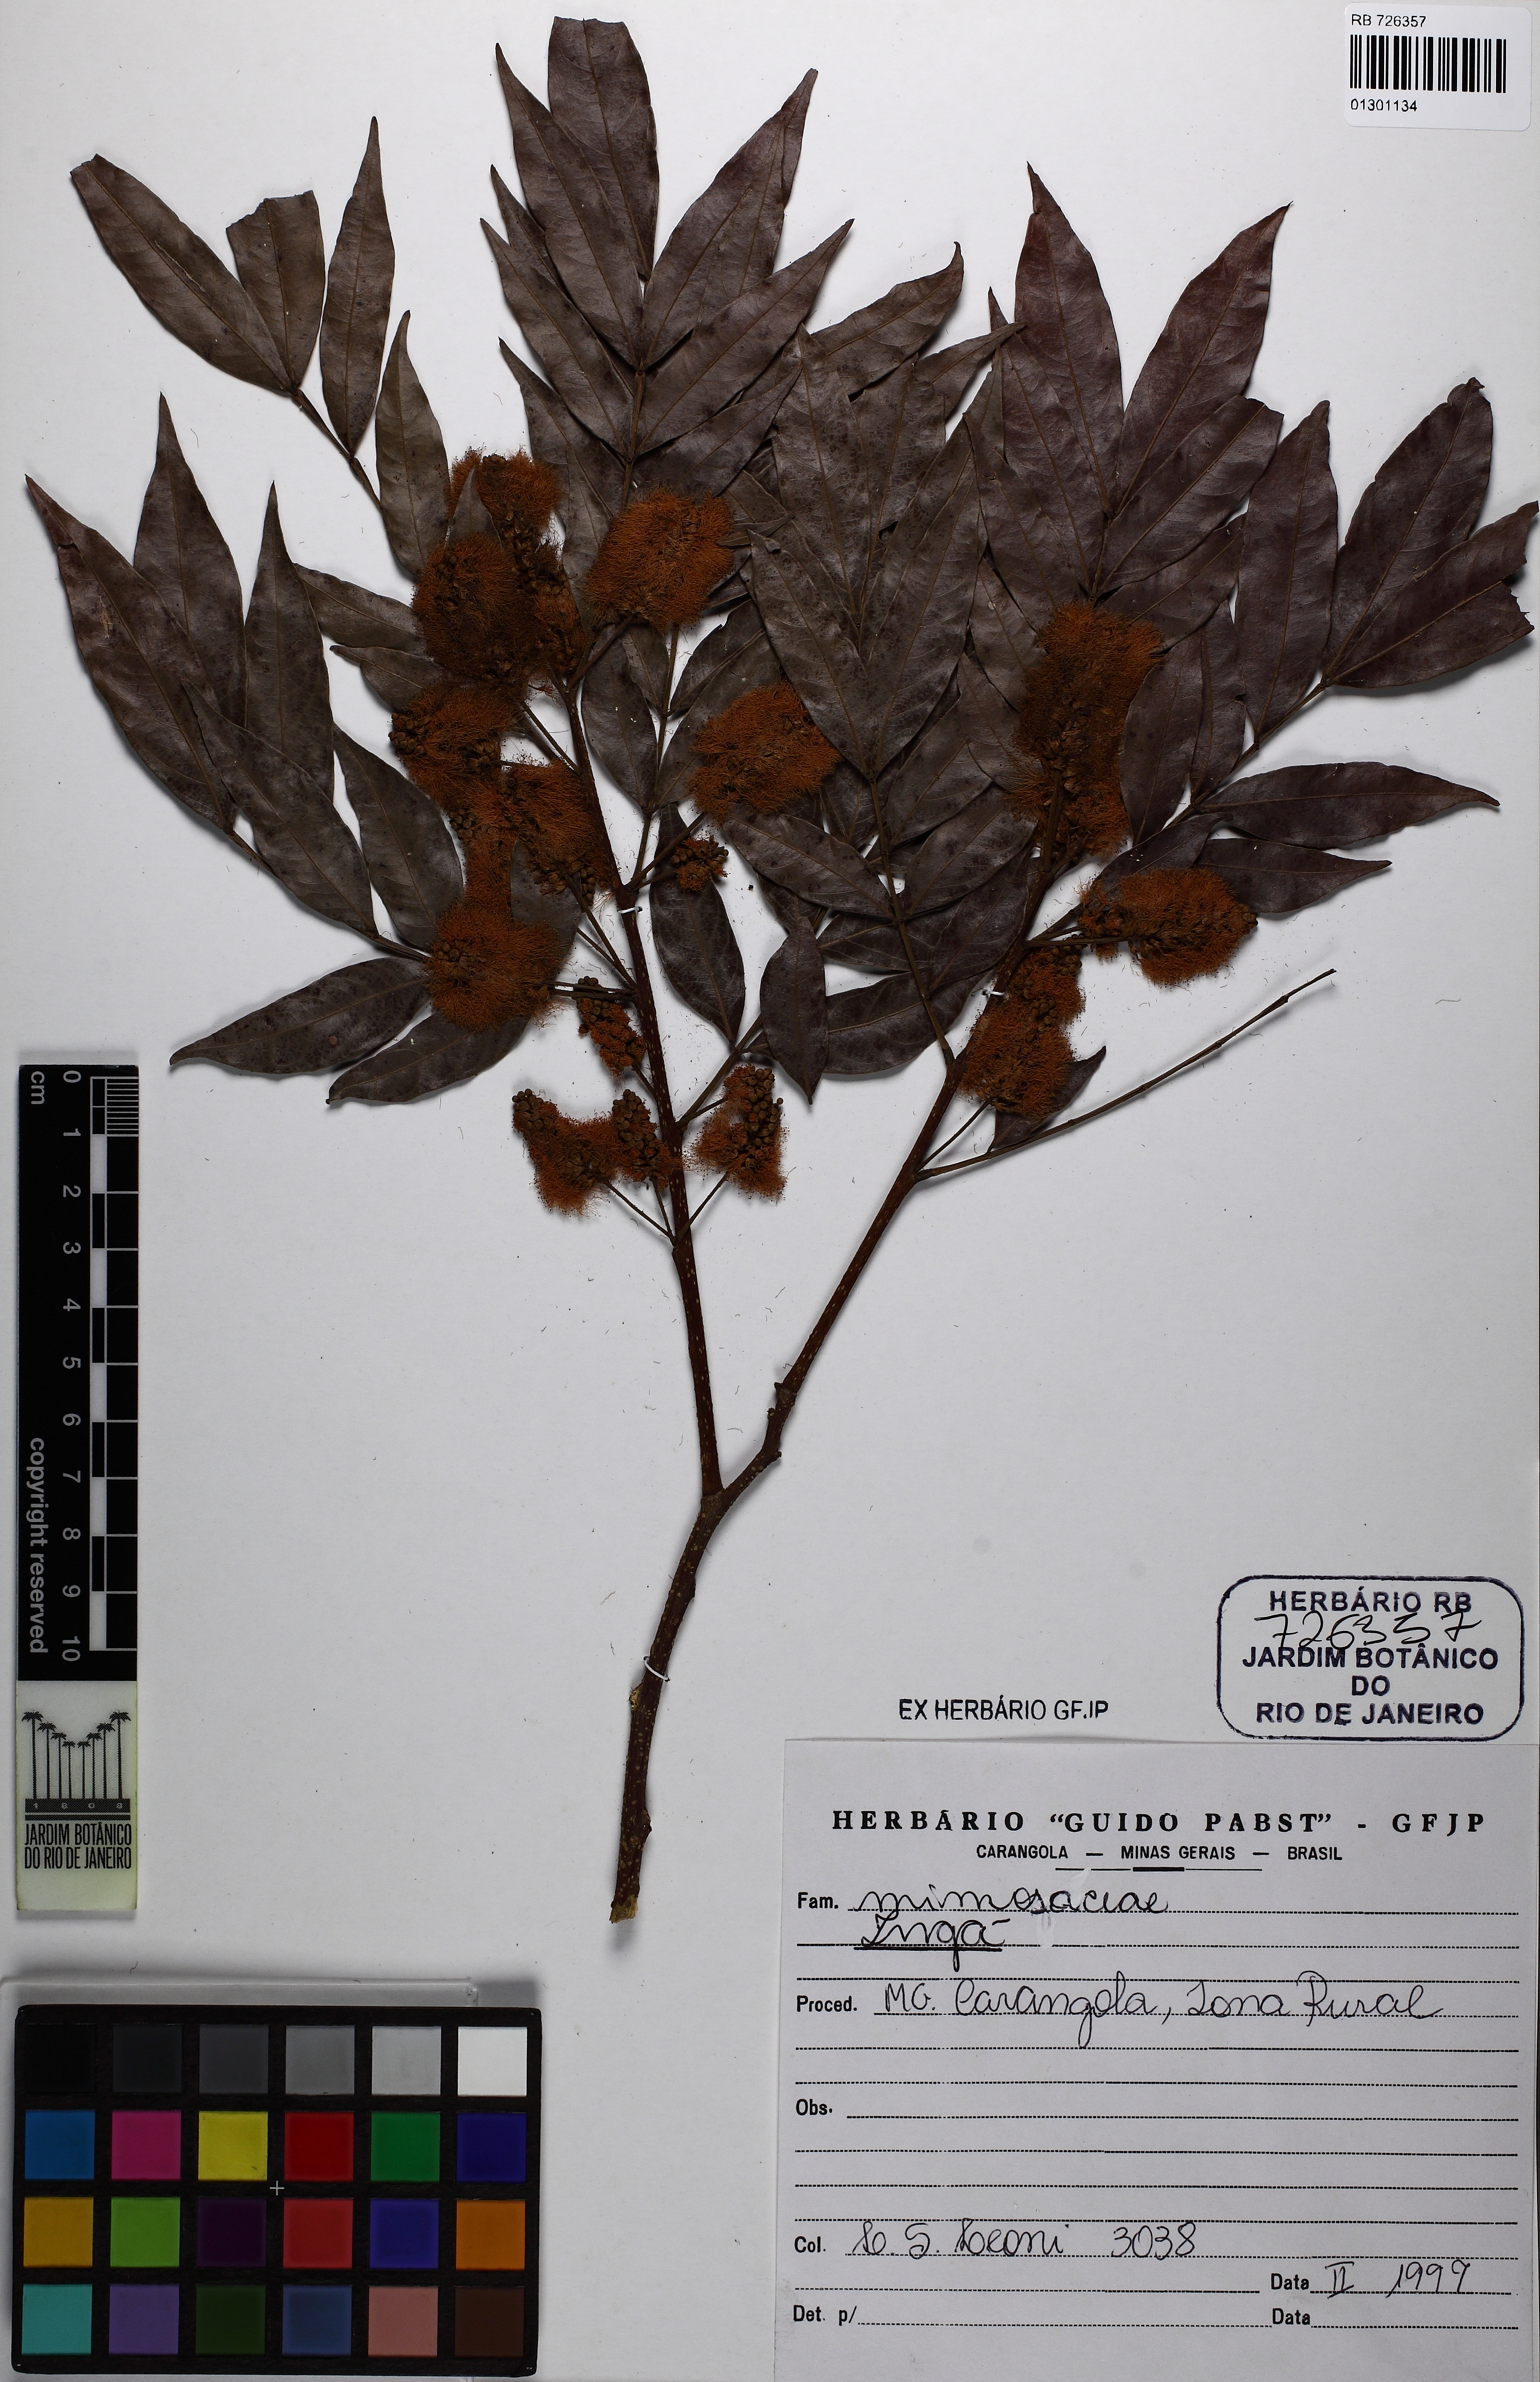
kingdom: Plantae
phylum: Tracheophyta
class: Magnoliopsida
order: Fabales
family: Fabaceae
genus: Inga
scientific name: Inga
